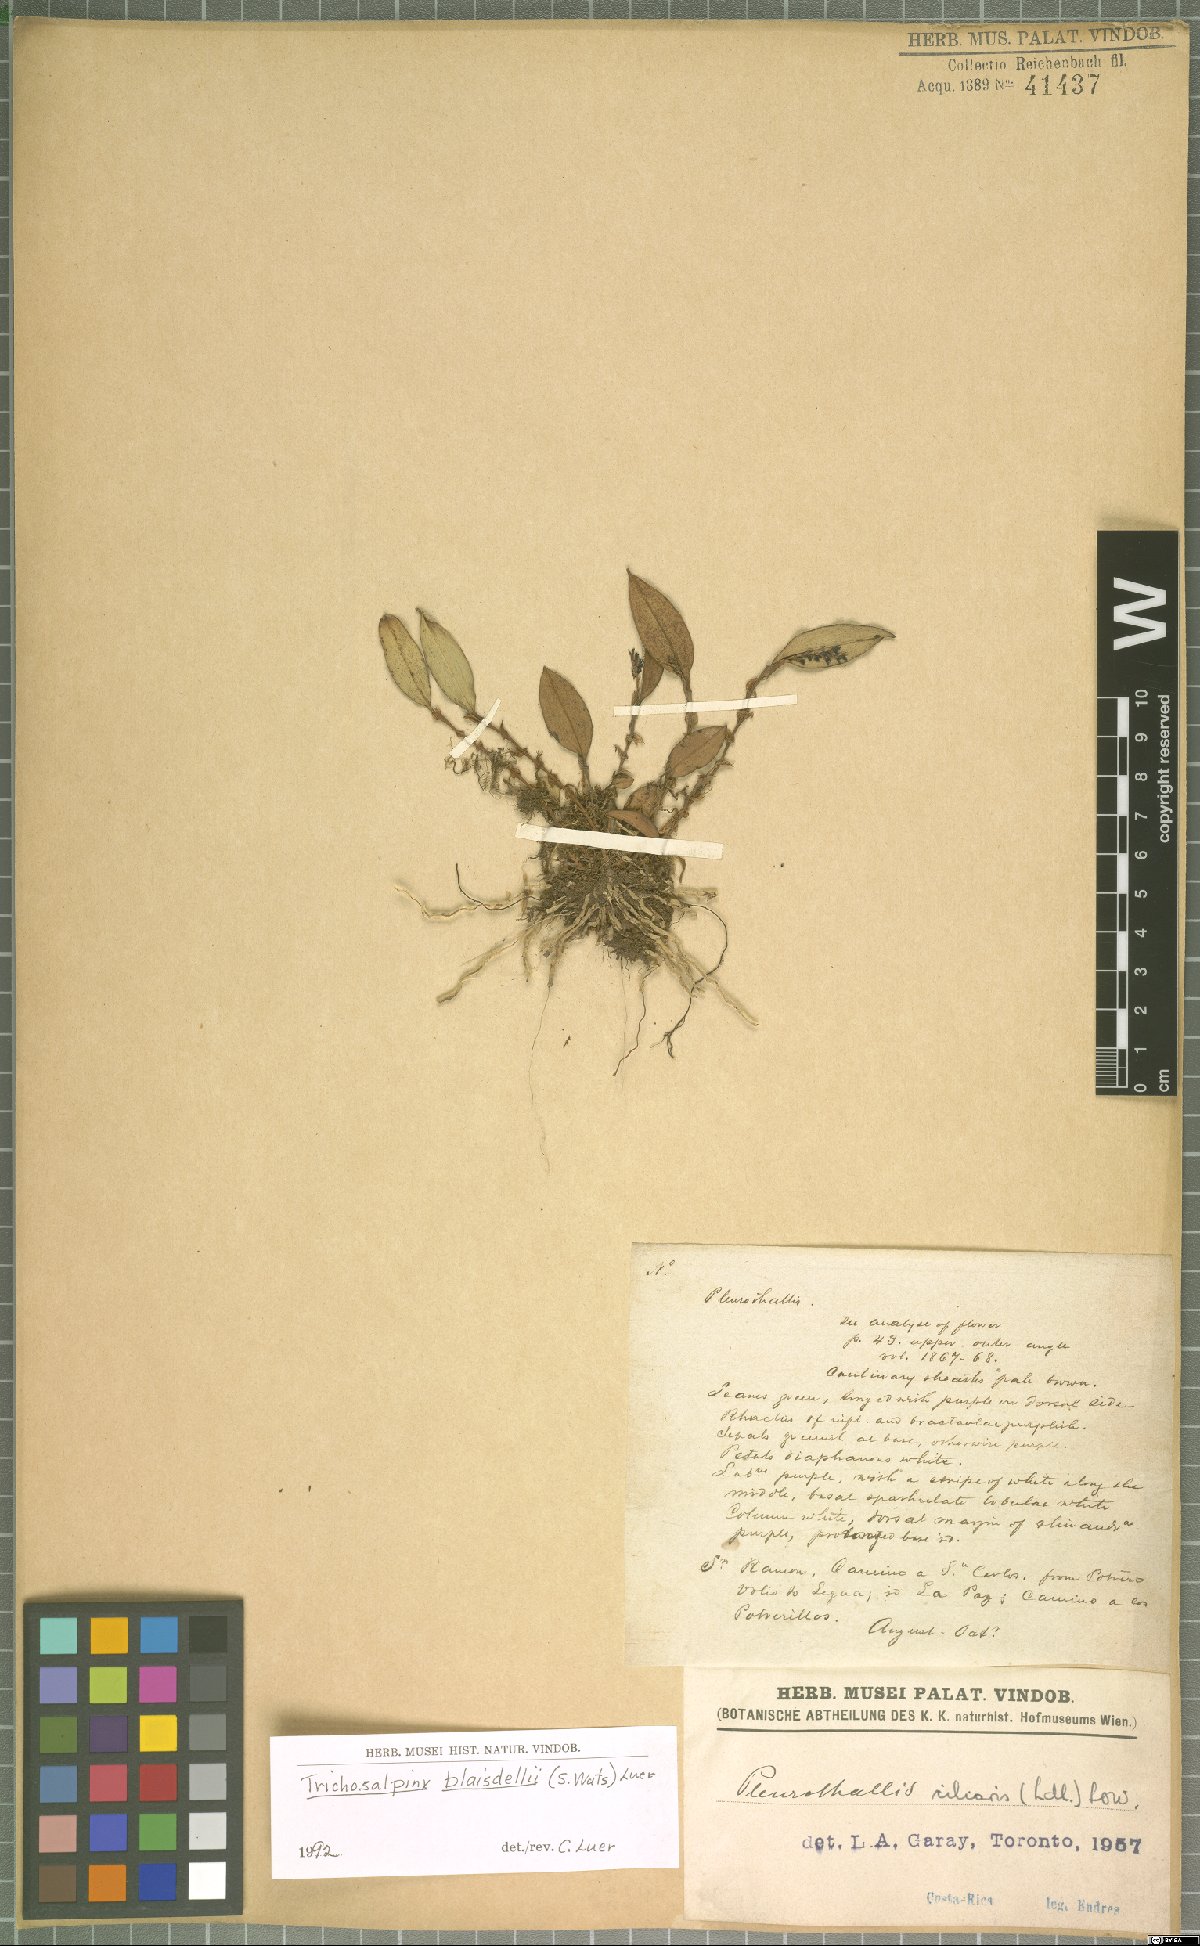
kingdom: Plantae
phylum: Tracheophyta
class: Liliopsida
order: Asparagales
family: Orchidaceae
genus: Trichosalpinx
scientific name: Trichosalpinx blaisdellii
